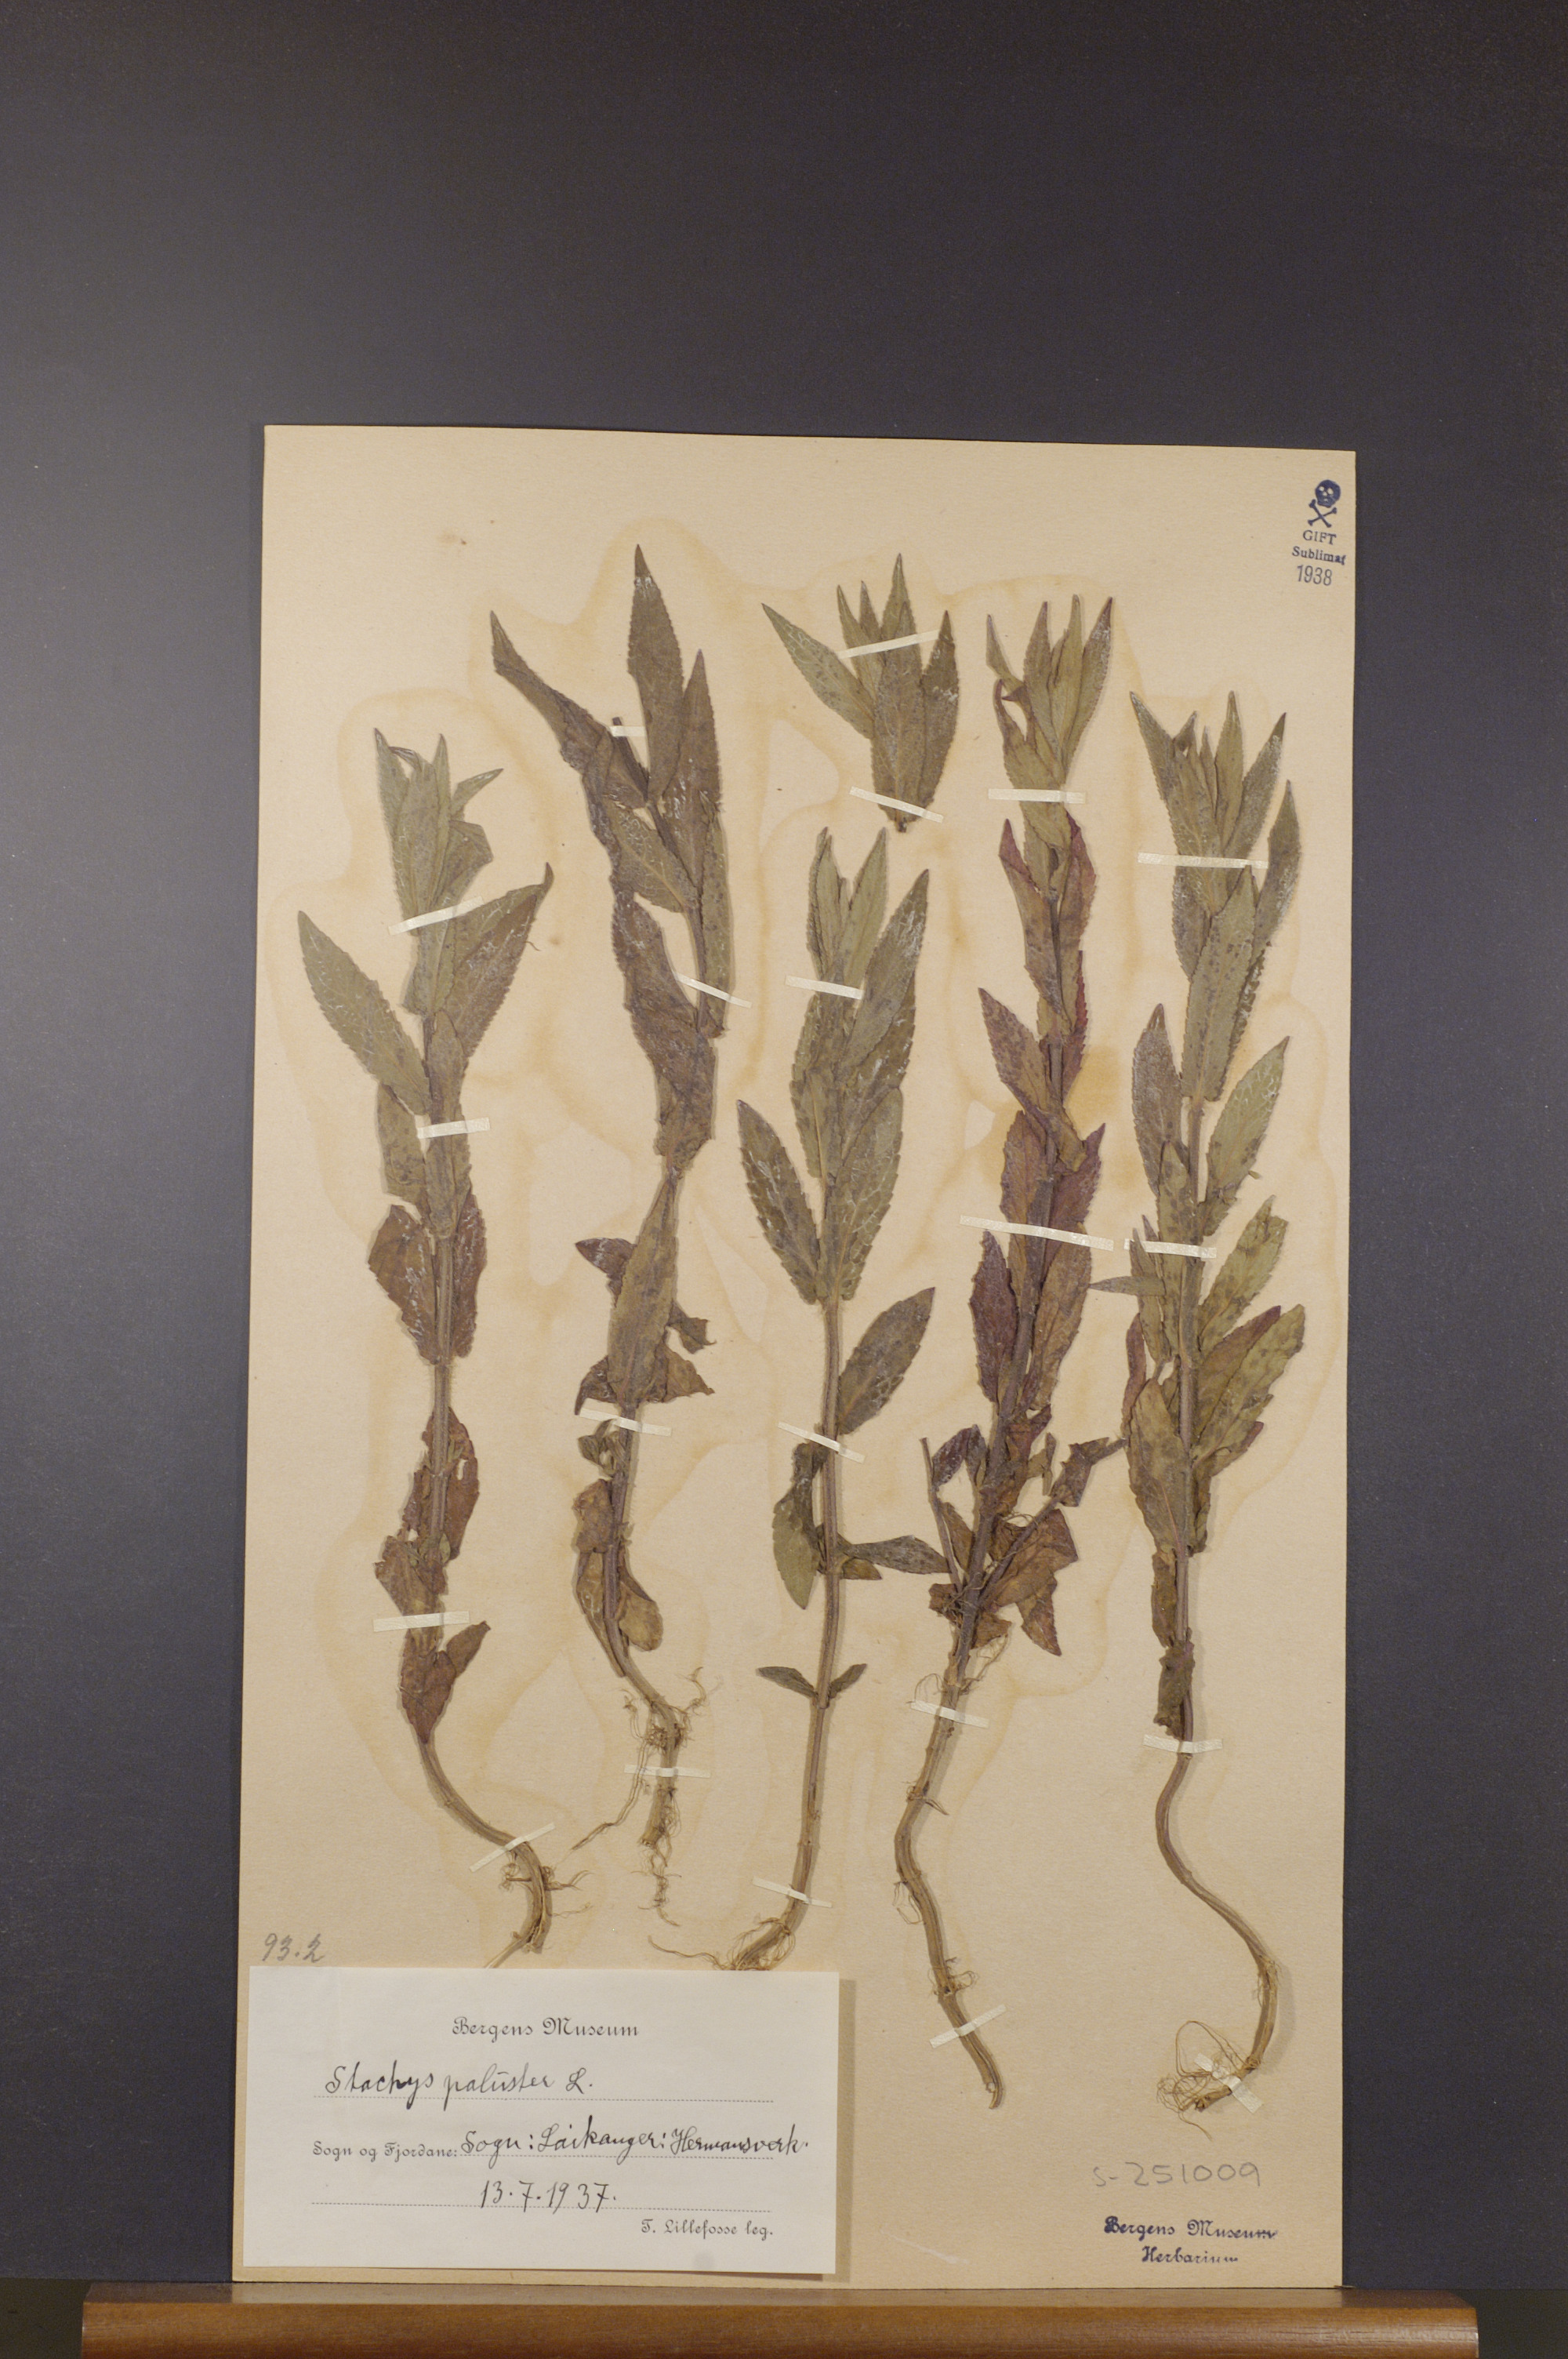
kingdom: Plantae
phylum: Tracheophyta
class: Magnoliopsida
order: Lamiales
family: Lamiaceae
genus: Stachys
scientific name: Stachys palustris
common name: Marsh woundwort
